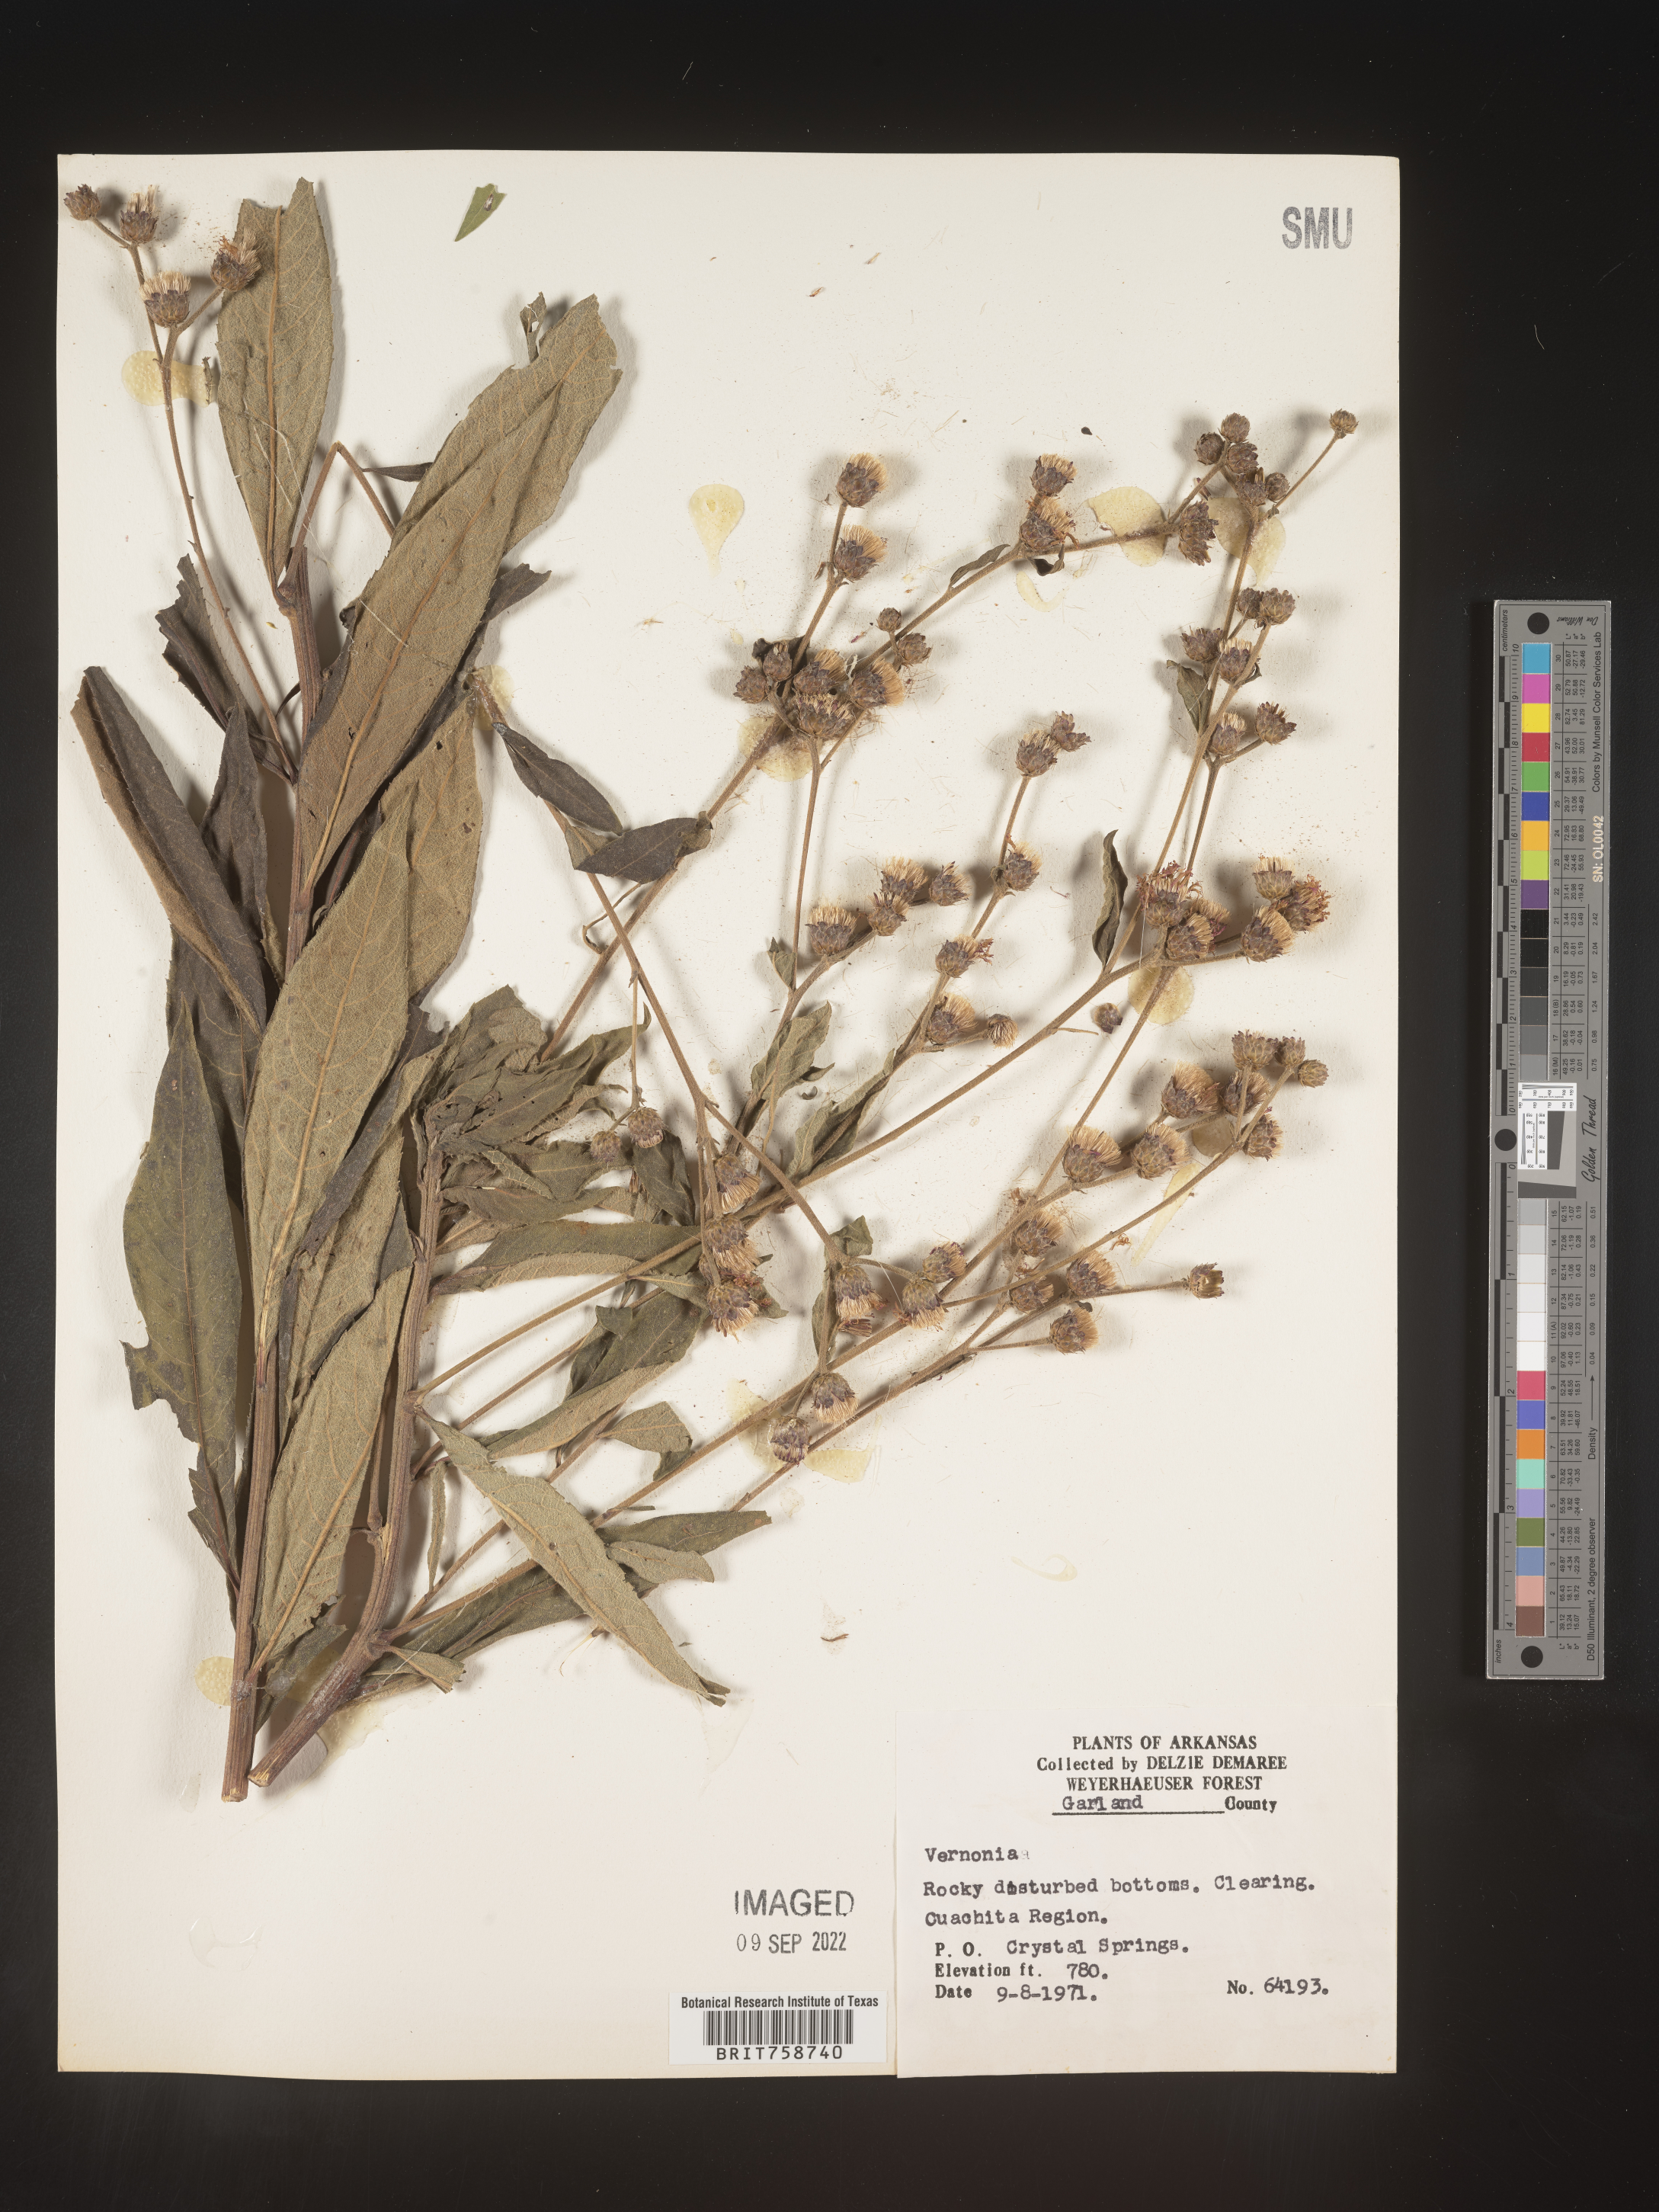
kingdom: Plantae
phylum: Tracheophyta
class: Magnoliopsida
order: Asterales
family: Asteraceae
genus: Vernonia
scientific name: Vernonia
